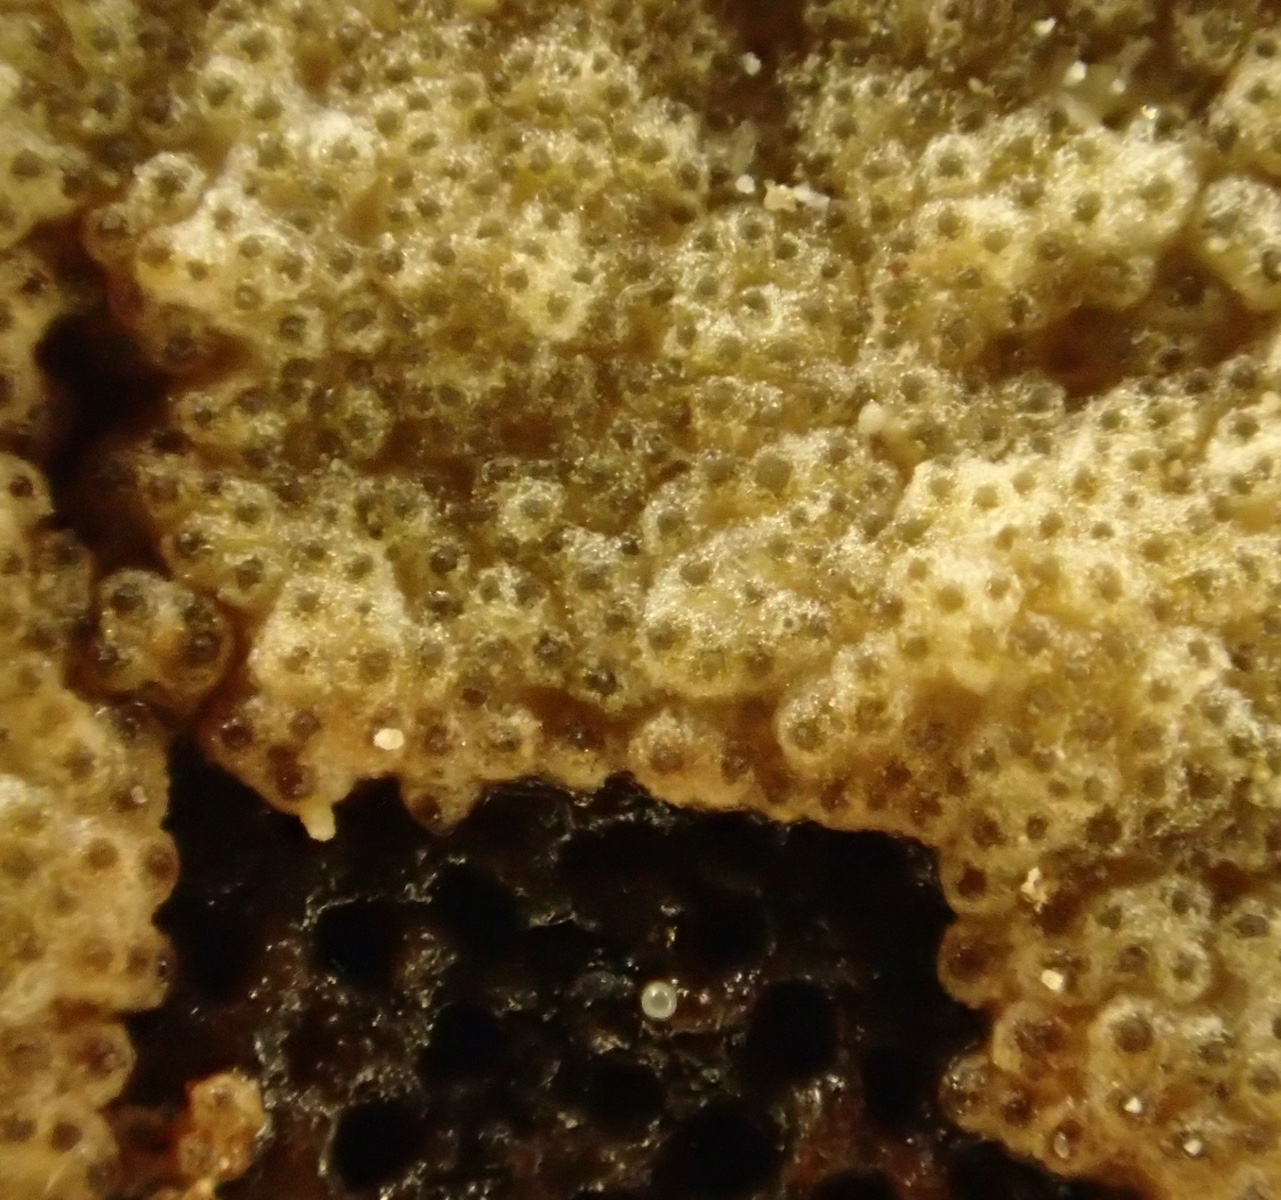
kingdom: Fungi
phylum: Ascomycota
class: Sordariomycetes
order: Hypocreales
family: Hypocreaceae
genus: Trichoderma
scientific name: Trichoderma pulvinatum
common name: snyltende kødkerne
